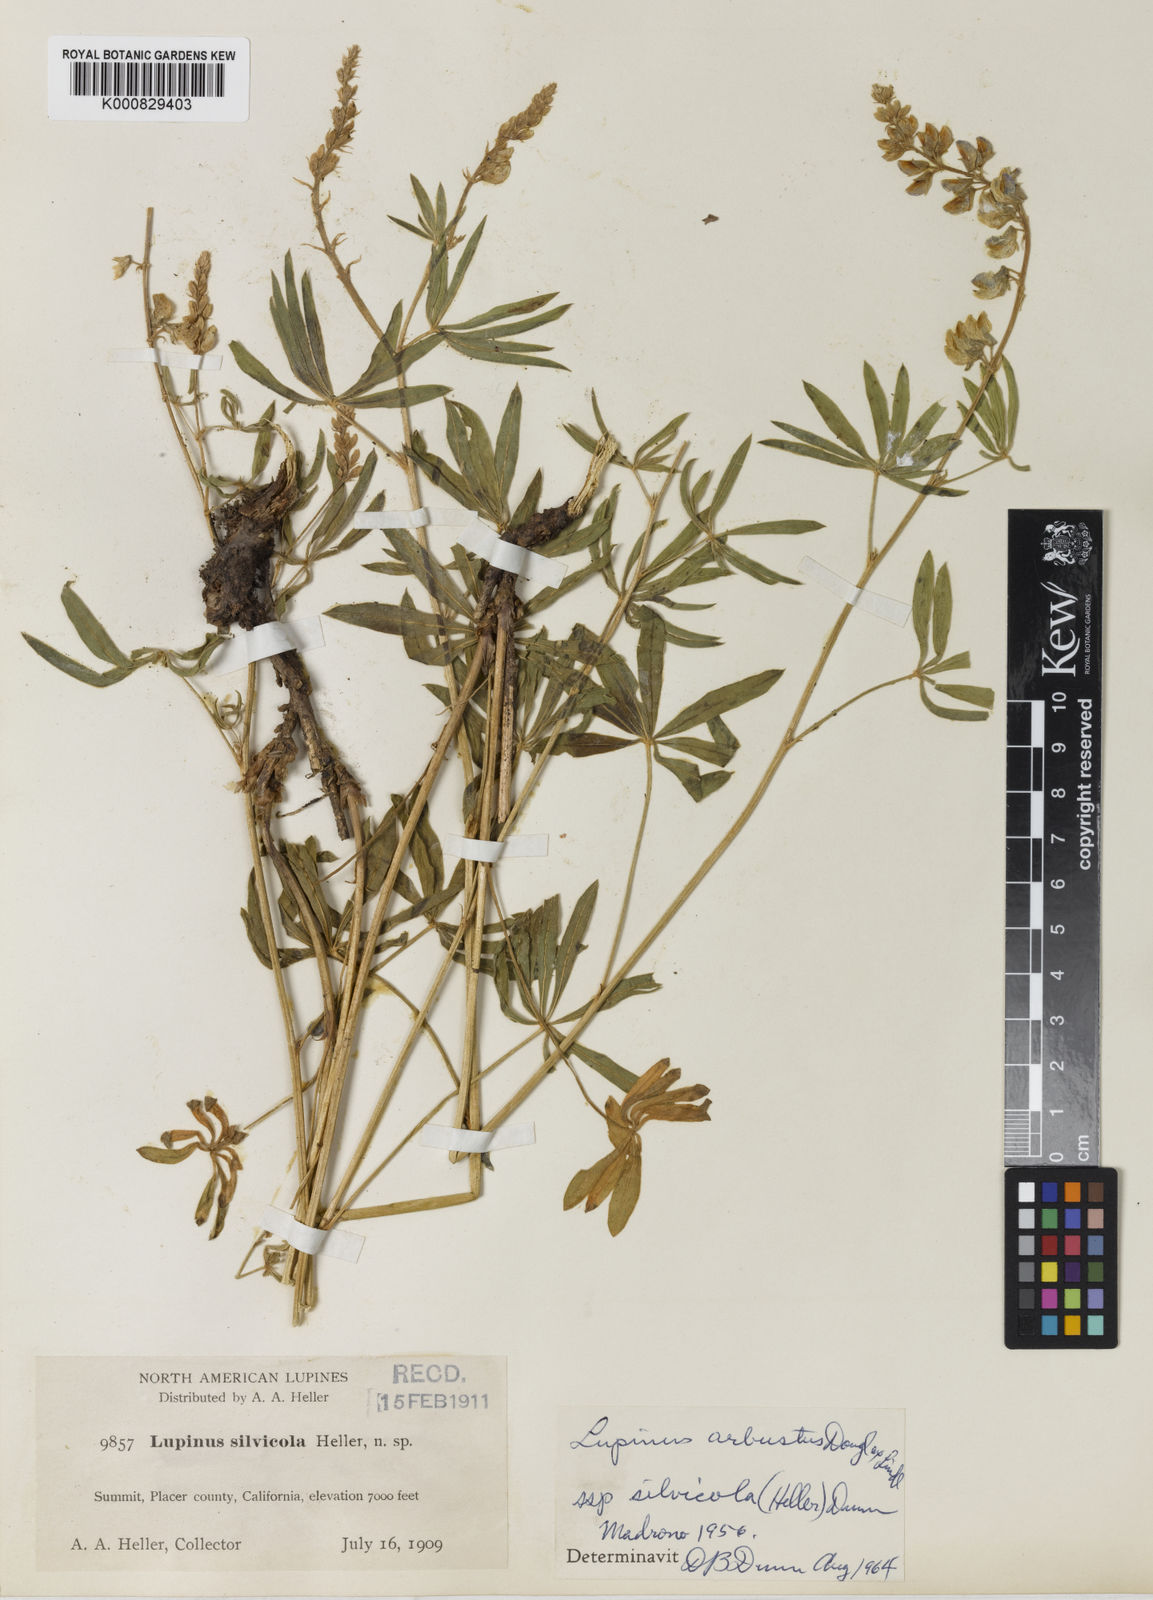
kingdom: Plantae
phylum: Tracheophyta
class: Magnoliopsida
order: Fabales
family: Fabaceae
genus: Lupinus
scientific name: Lupinus arbustus
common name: Montana lupine
